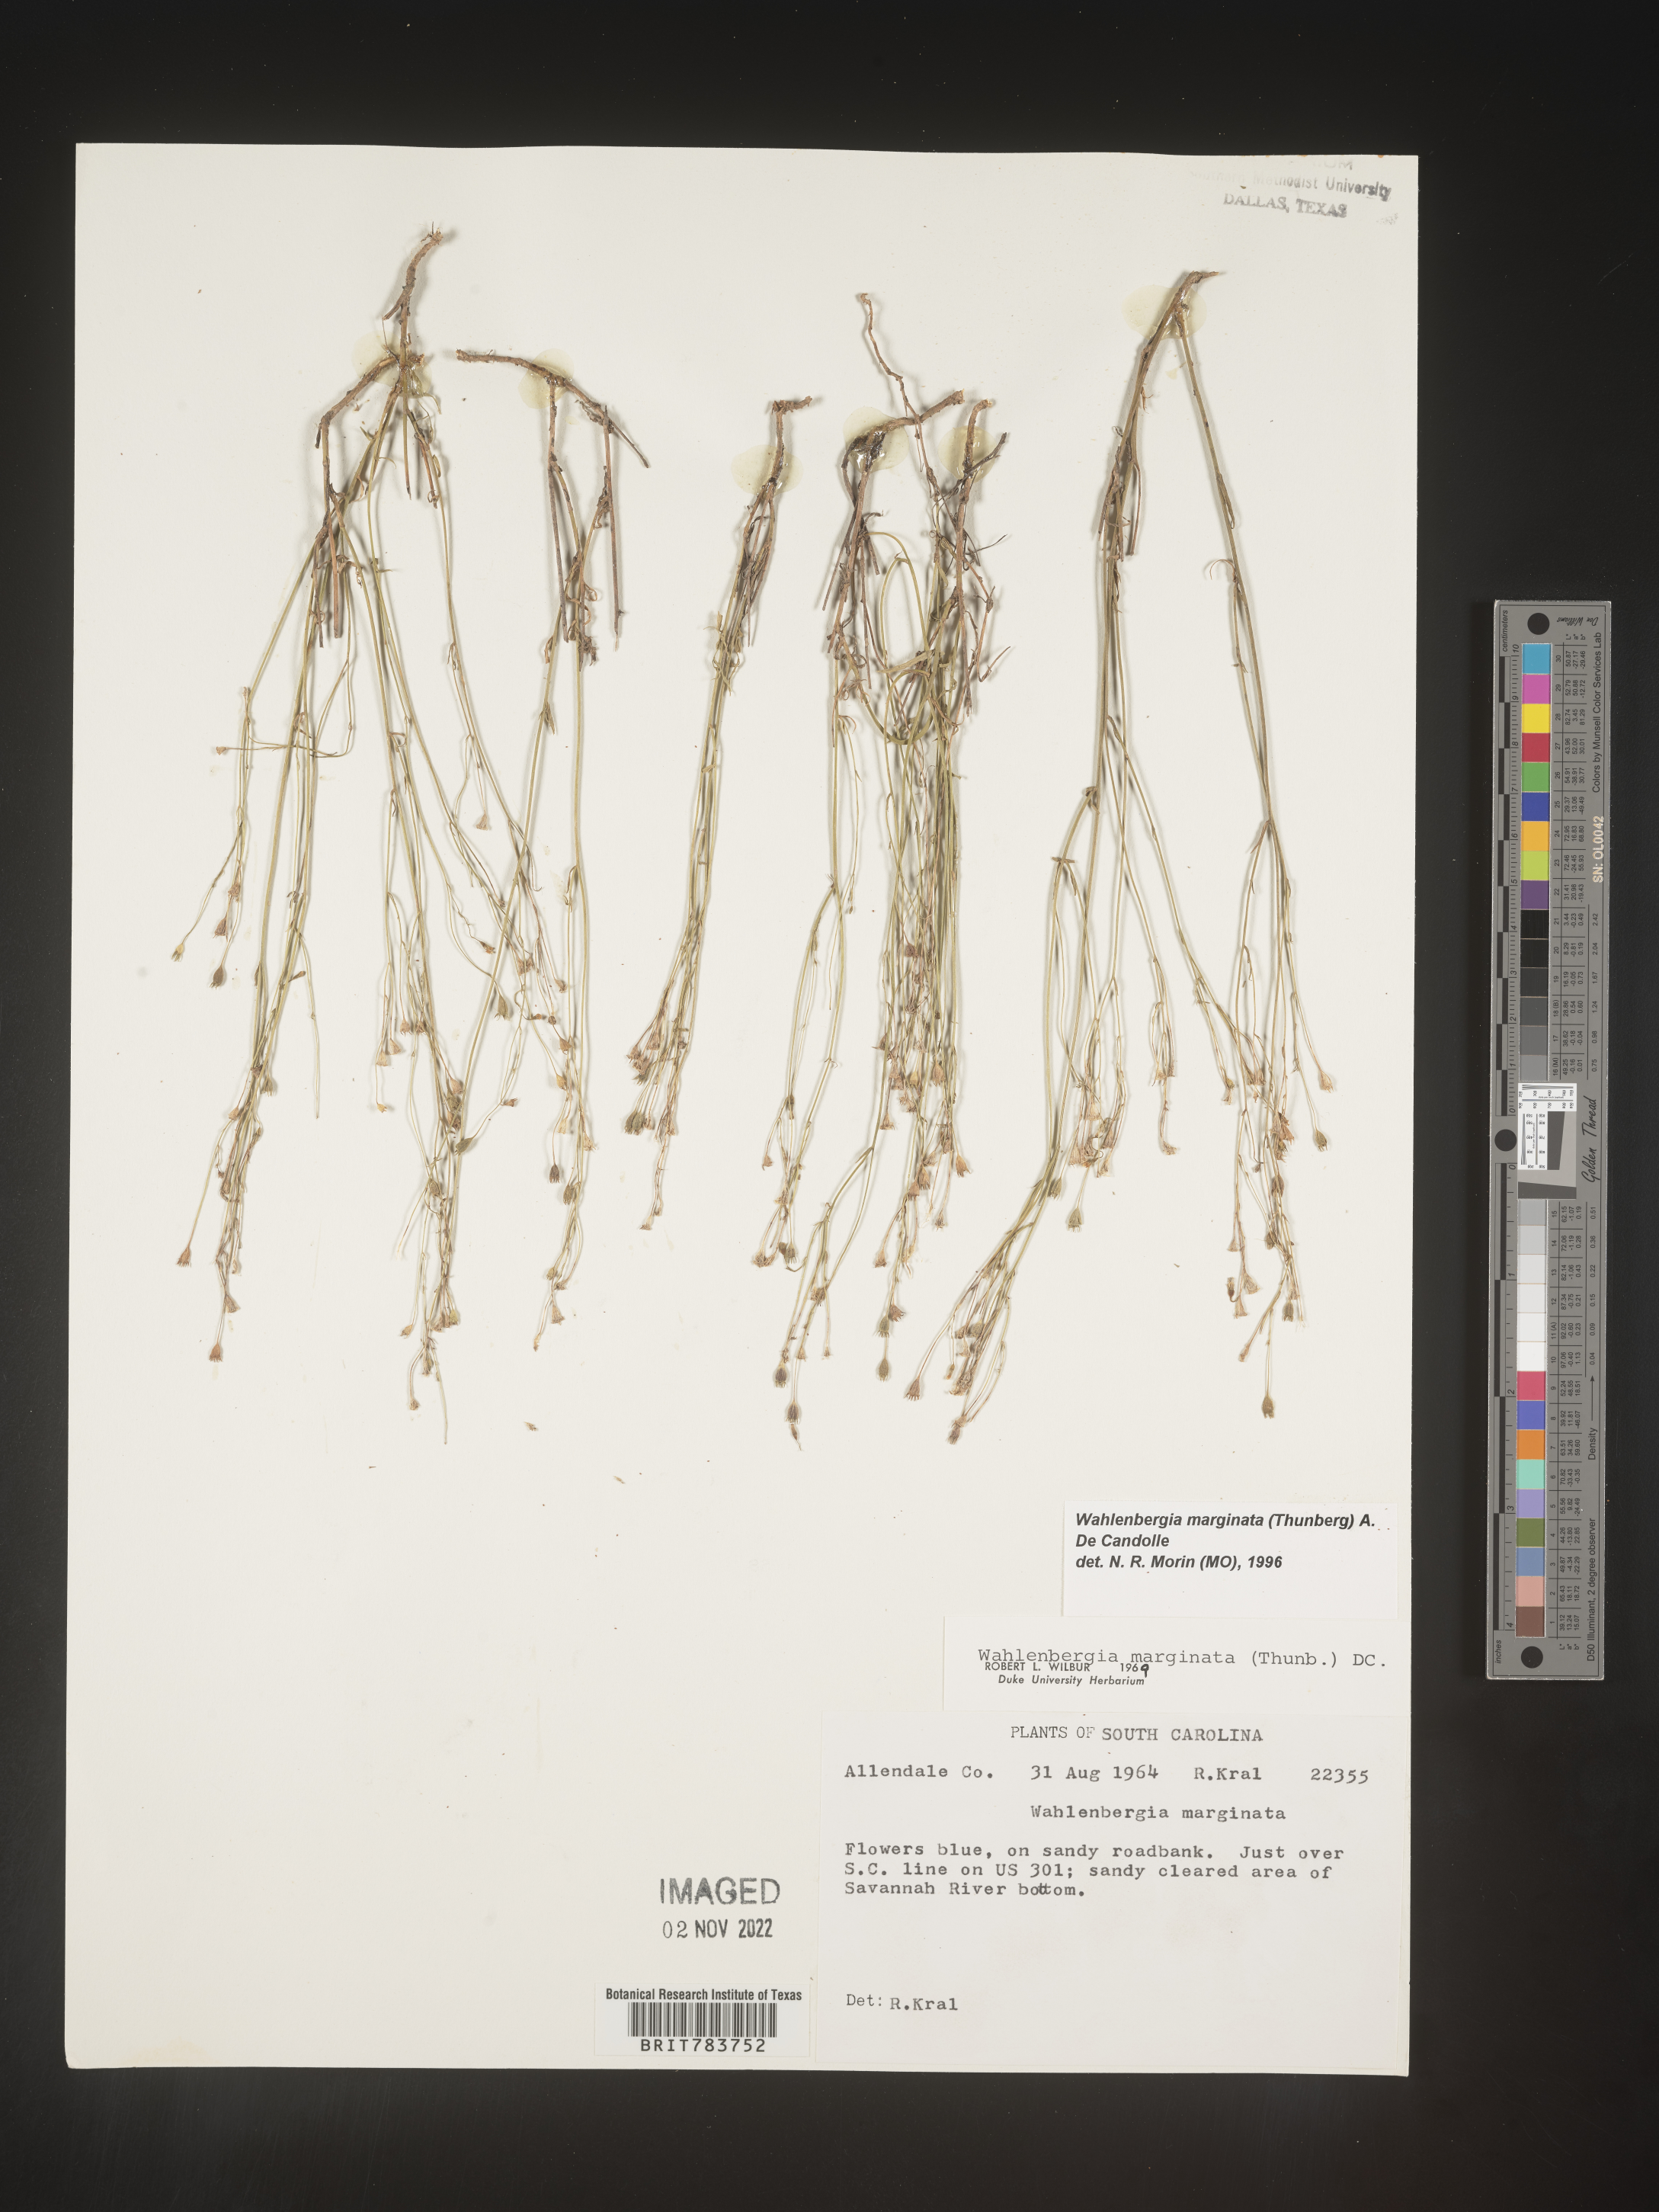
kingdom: Plantae
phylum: Tracheophyta
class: Magnoliopsida
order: Asterales
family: Campanulaceae
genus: Wahlenbergia
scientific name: Wahlenbergia marginata
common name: Southern rockbell
